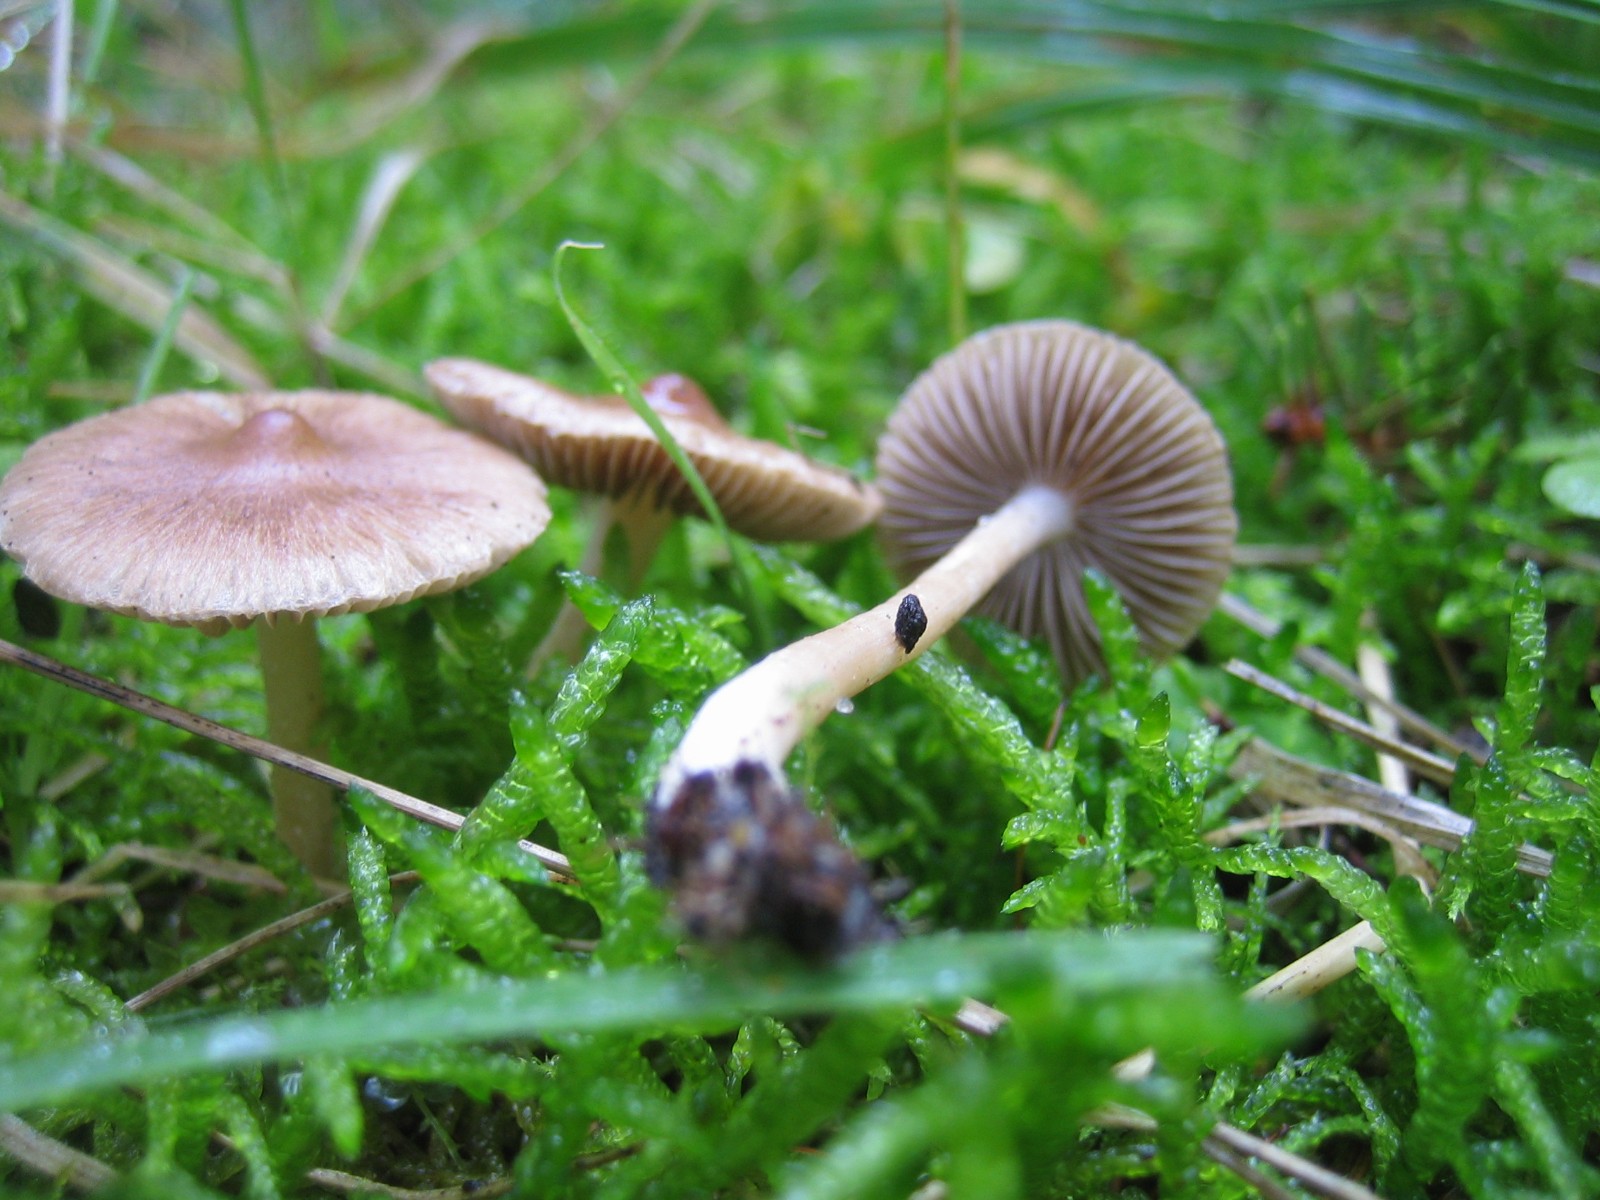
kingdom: Fungi
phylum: Basidiomycota
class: Agaricomycetes
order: Agaricales
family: Inocybaceae
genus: Inocybe
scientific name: Inocybe
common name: trævlhat
